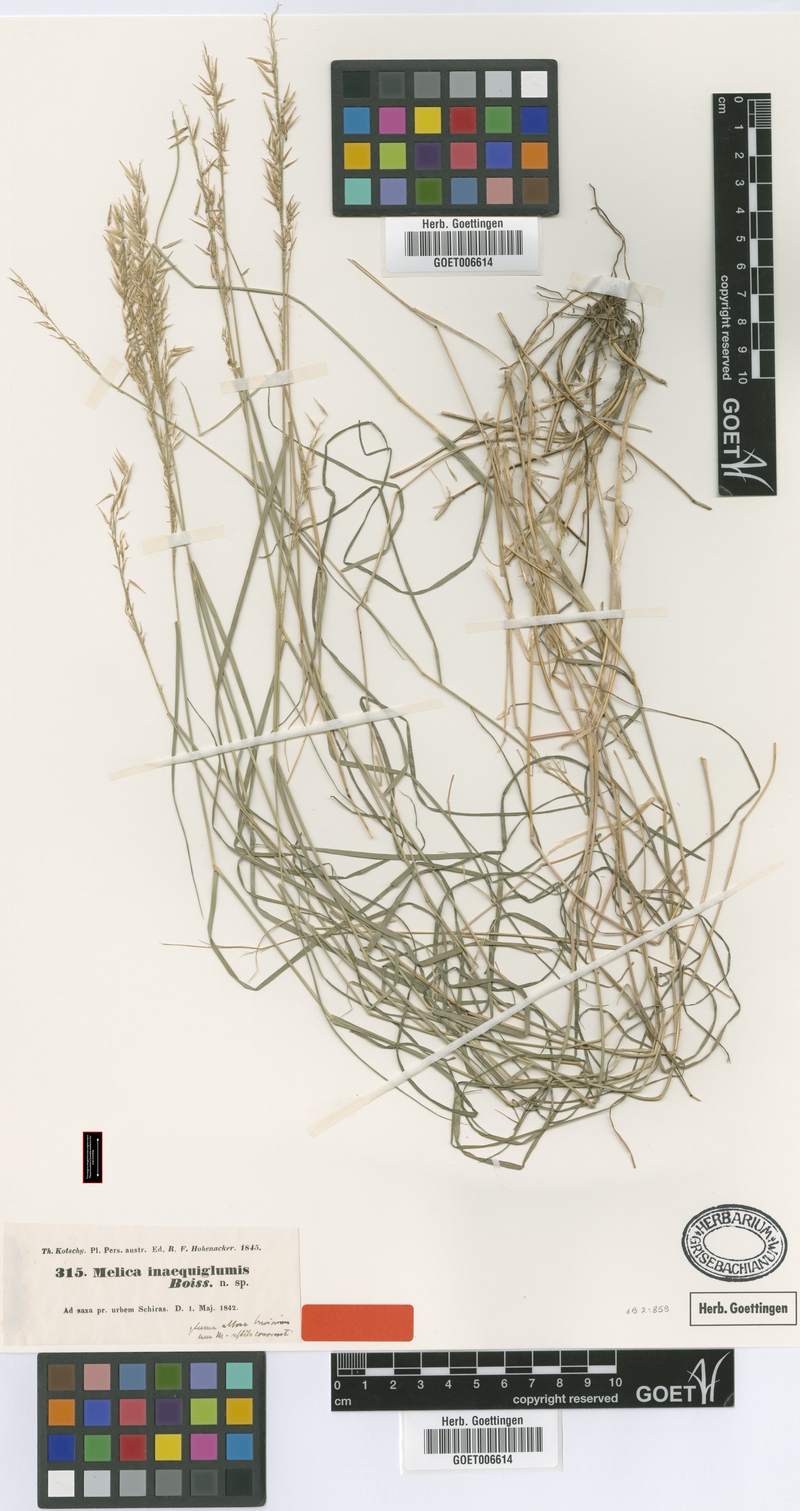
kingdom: Plantae
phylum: Tracheophyta
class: Liliopsida
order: Poales
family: Poaceae
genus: Melica
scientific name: Melica persica
